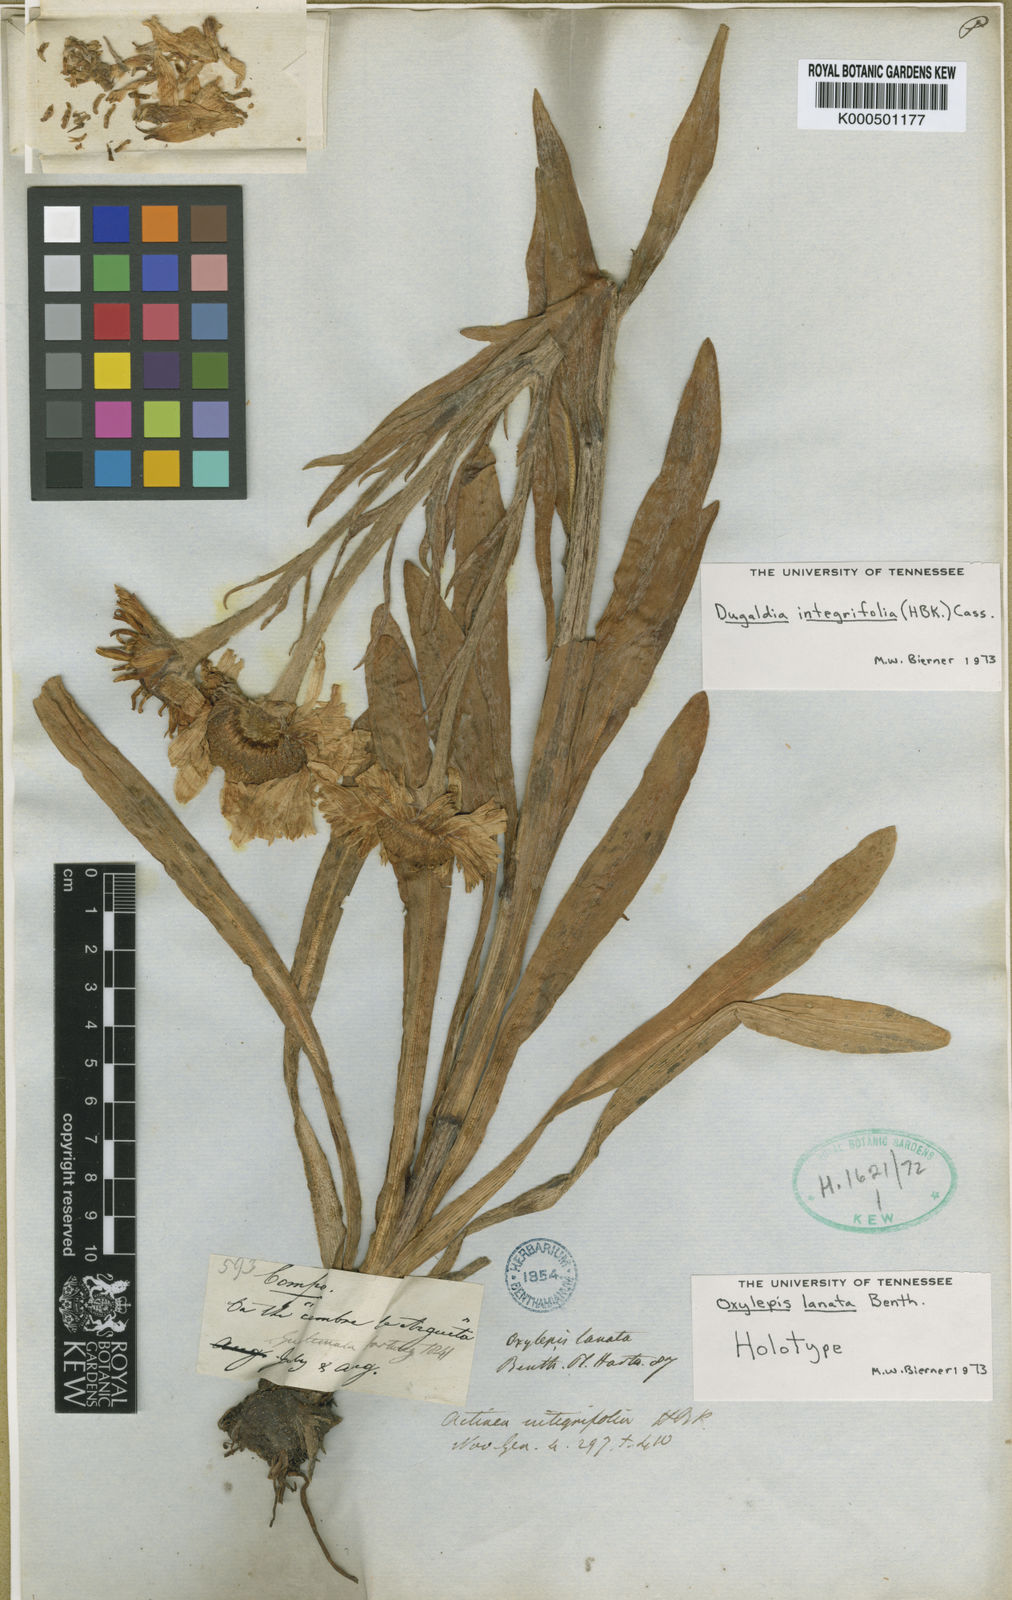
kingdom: Plantae
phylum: Tracheophyta
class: Magnoliopsida
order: Asterales
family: Asteraceae
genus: Hymenoxys
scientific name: Hymenoxys integrifolia
